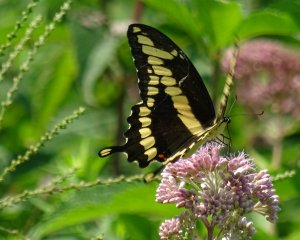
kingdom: Animalia
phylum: Arthropoda
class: Insecta
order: Lepidoptera
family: Papilionidae
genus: Papilio
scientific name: Papilio cresphontes
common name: Eastern Giant Swallowtail
